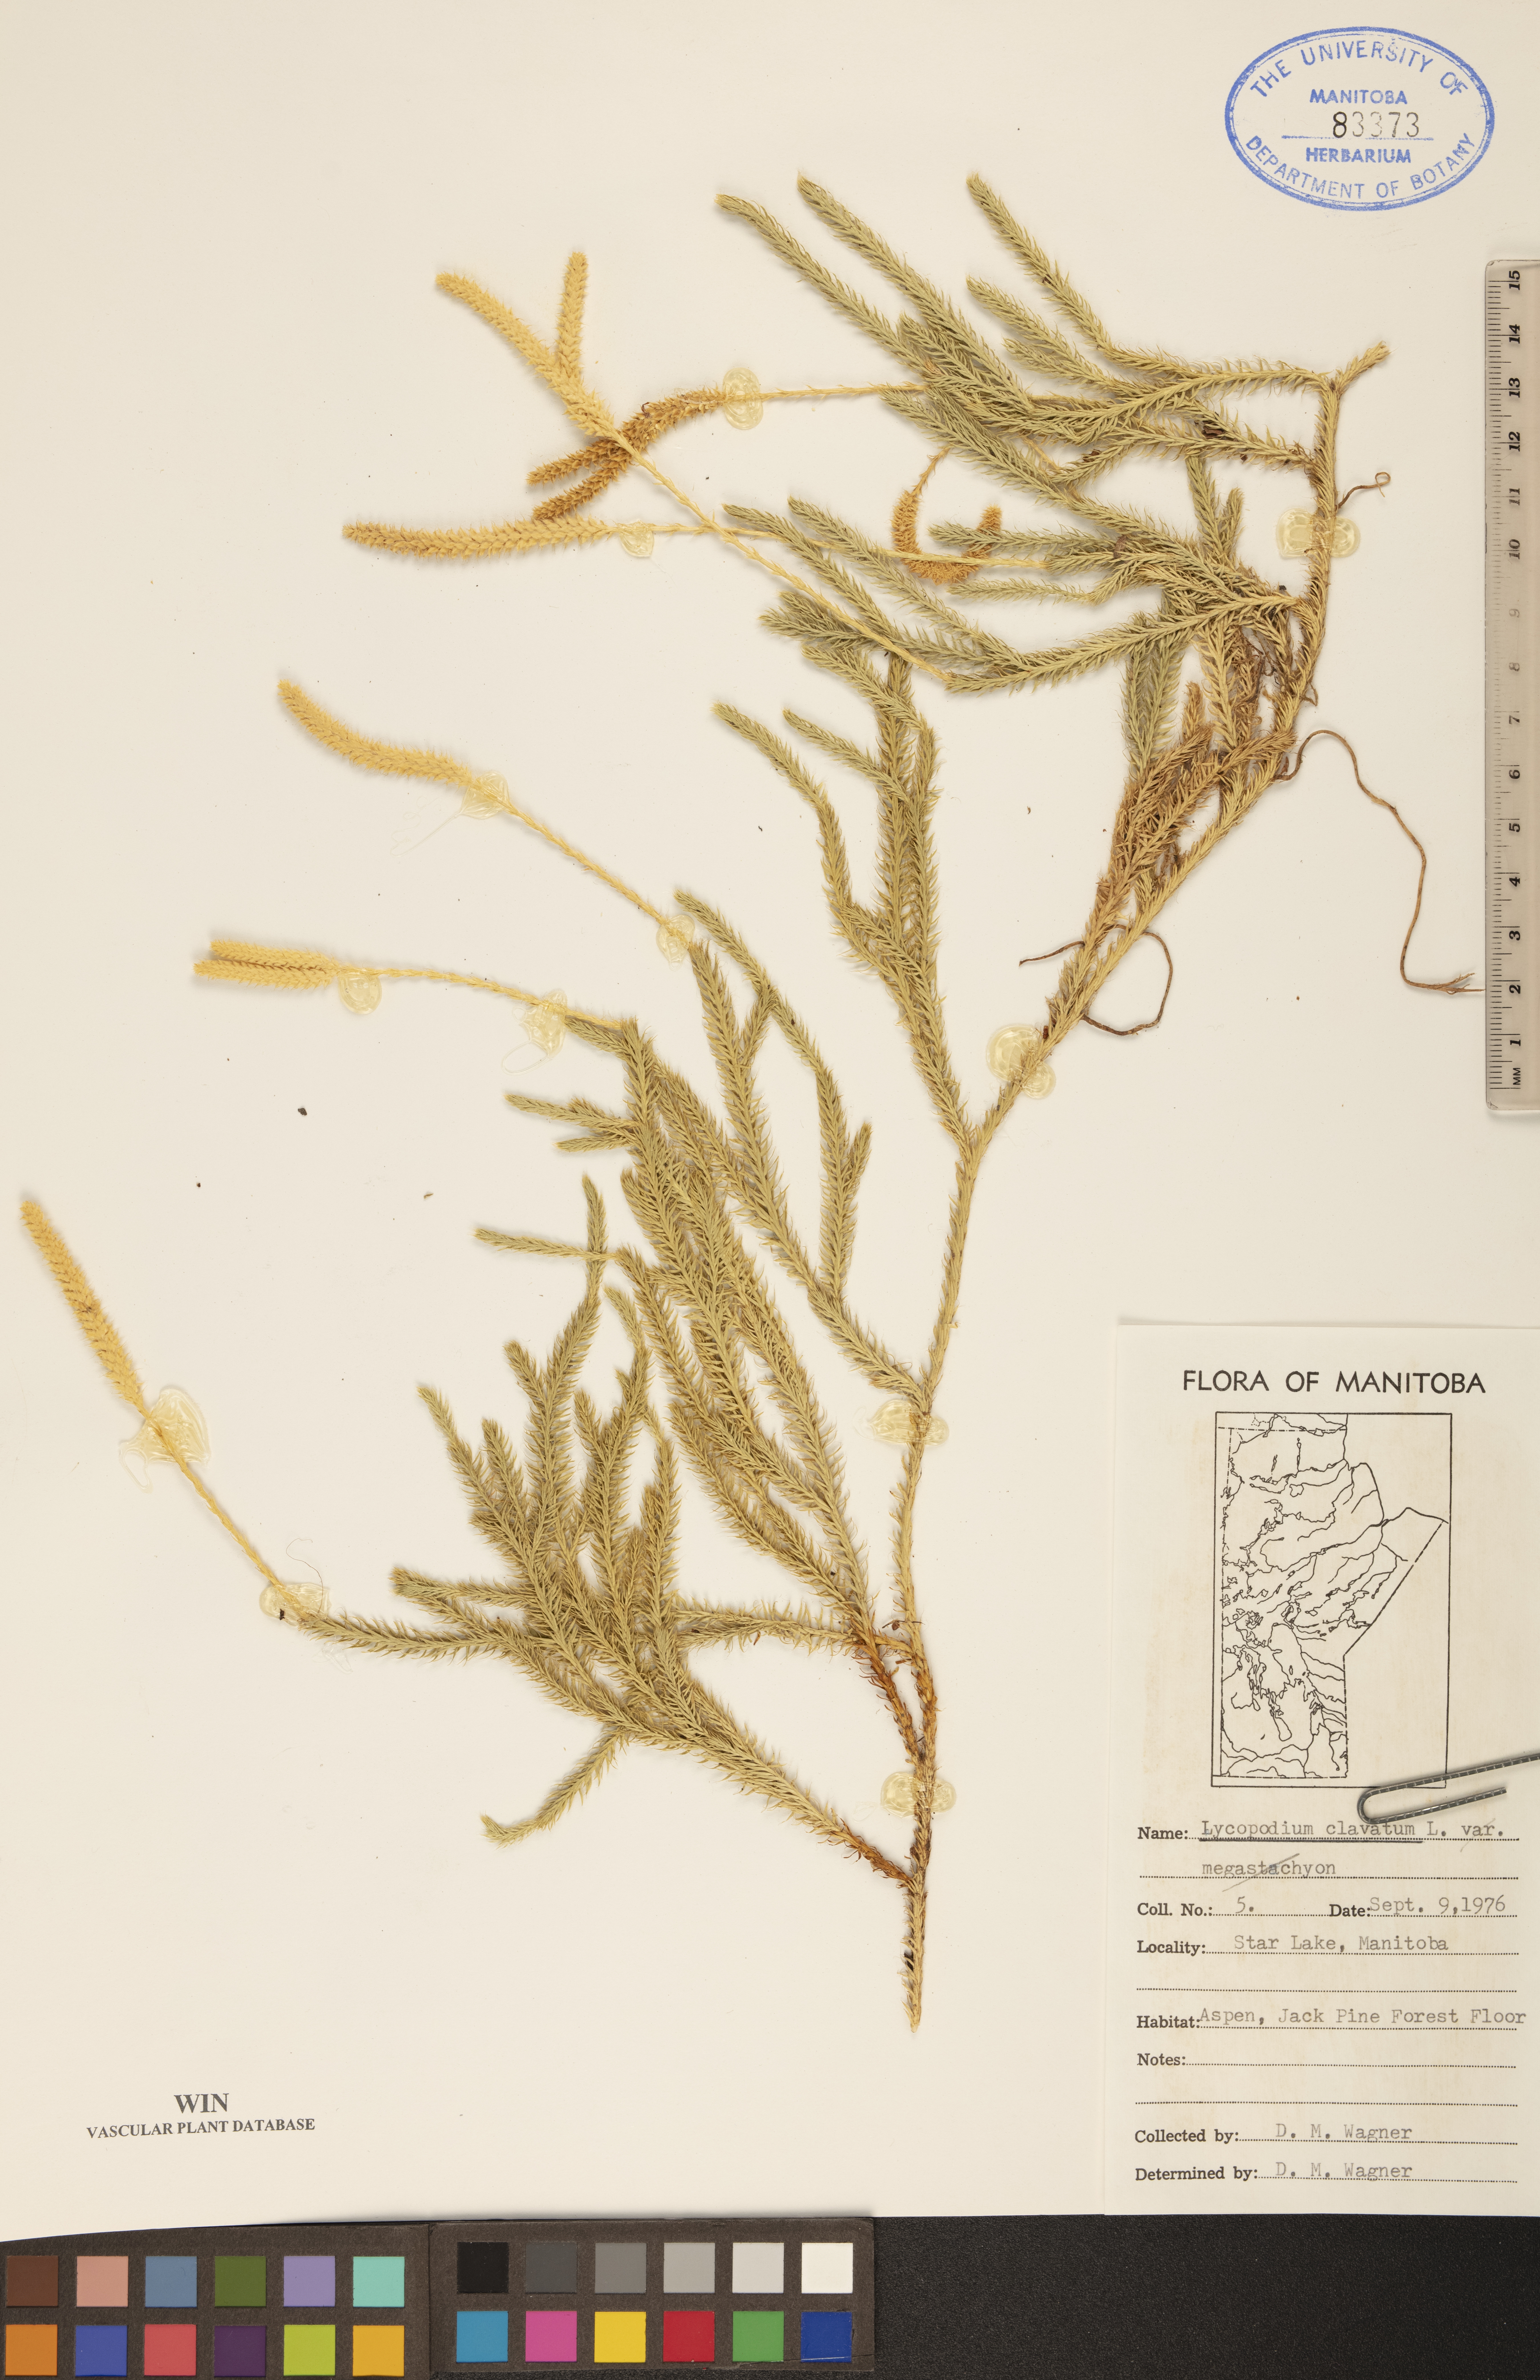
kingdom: Plantae
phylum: Tracheophyta
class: Lycopodiopsida
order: Lycopodiales
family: Lycopodiaceae
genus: Lycopodium
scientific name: Lycopodium clavatum
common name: Stag's-horn clubmoss
